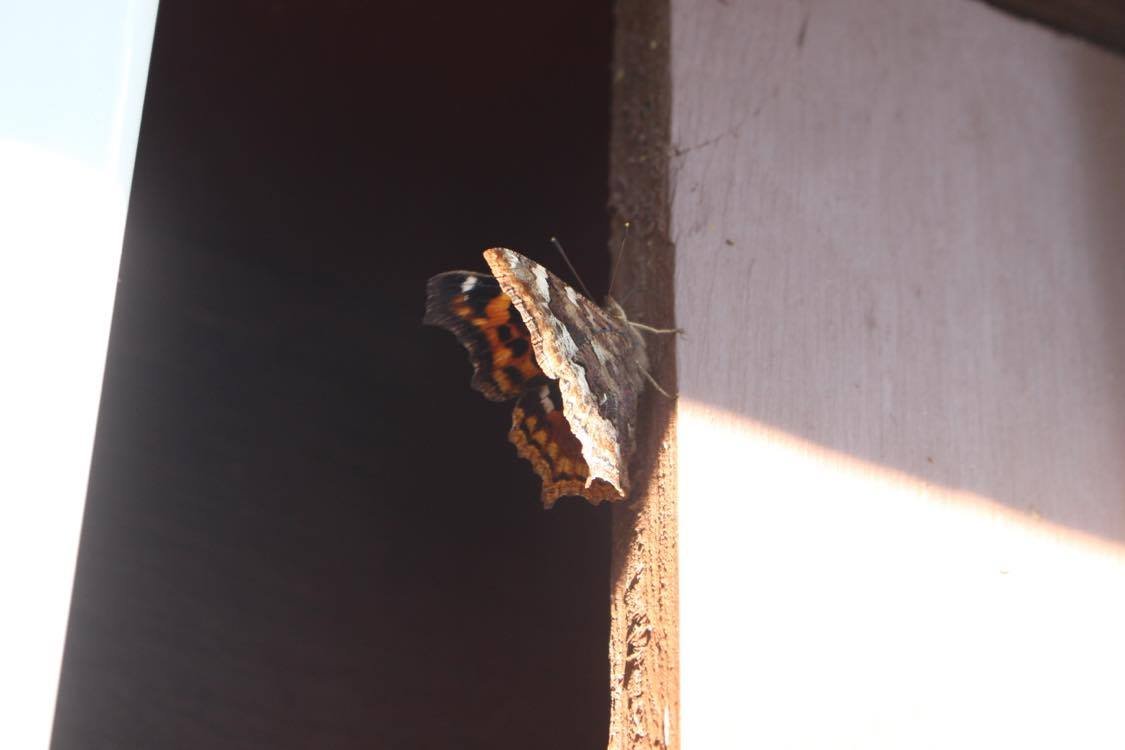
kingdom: Animalia
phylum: Arthropoda
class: Insecta
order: Lepidoptera
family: Nymphalidae
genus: Polygonia
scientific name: Polygonia vaualbum
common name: Compton Tortoiseshell
